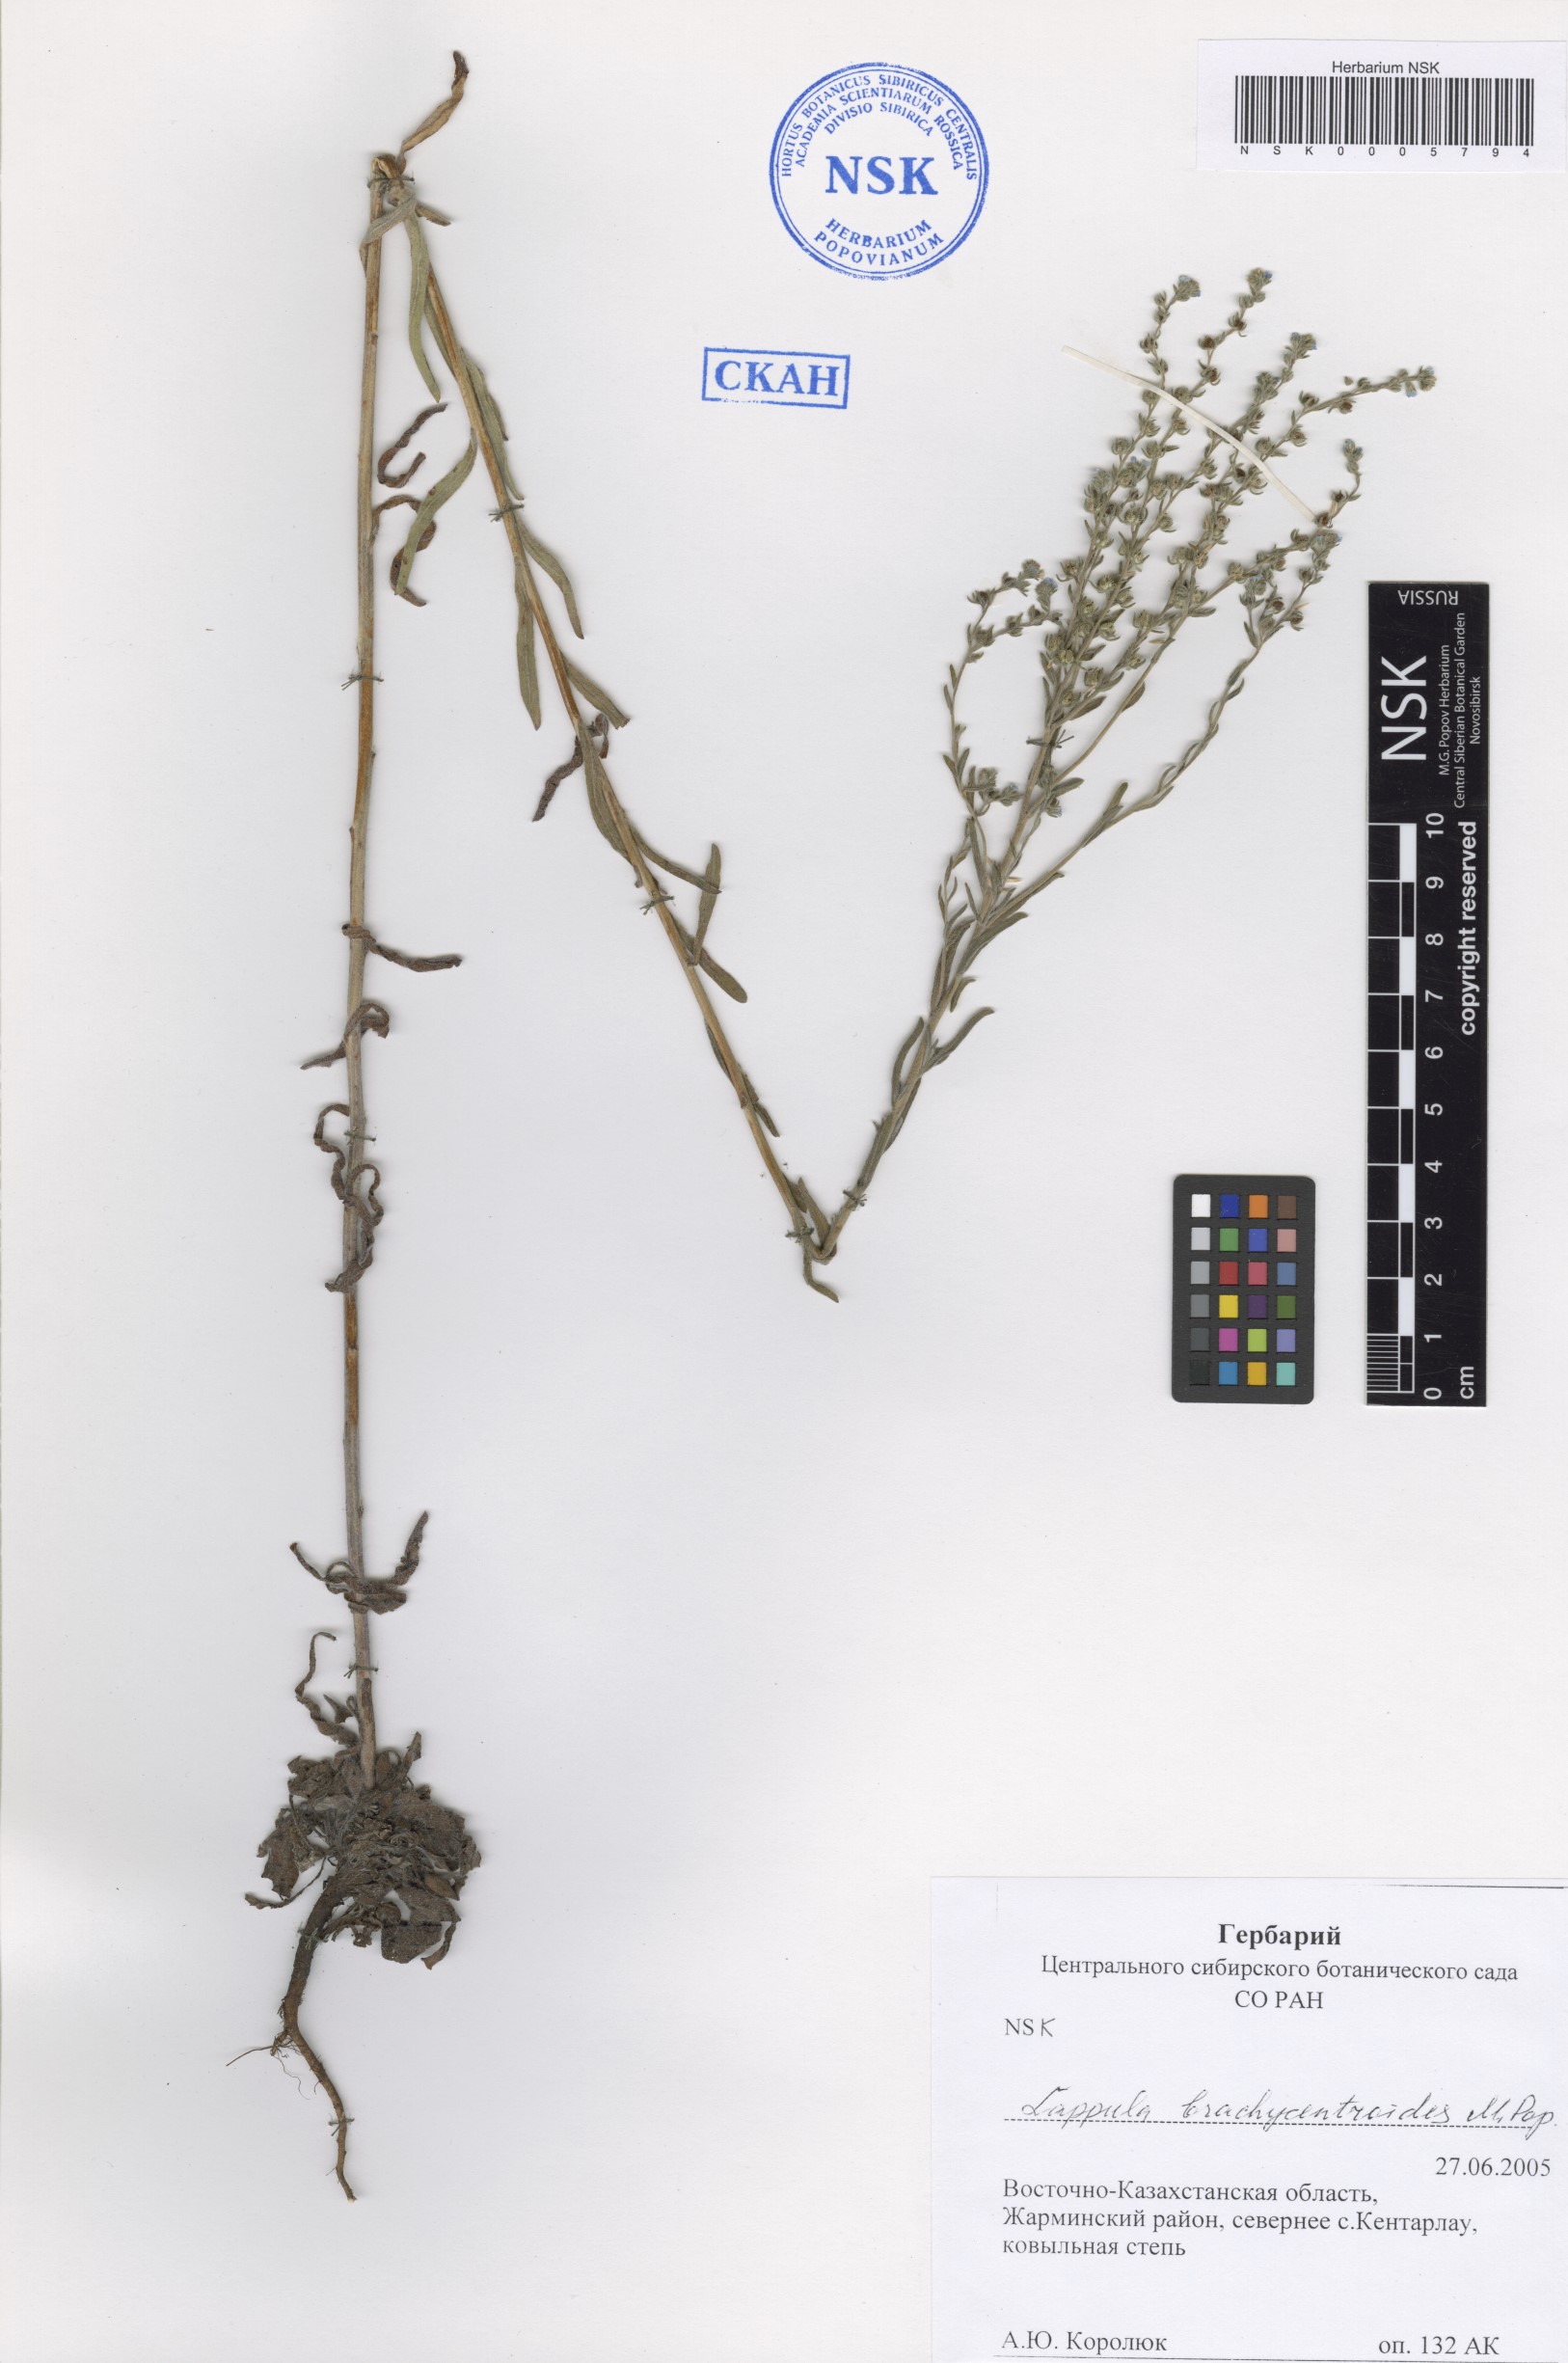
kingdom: Plantae
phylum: Tracheophyta
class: Magnoliopsida
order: Boraginales
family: Boraginaceae
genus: Lappula
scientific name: Lappula brachycentroides
